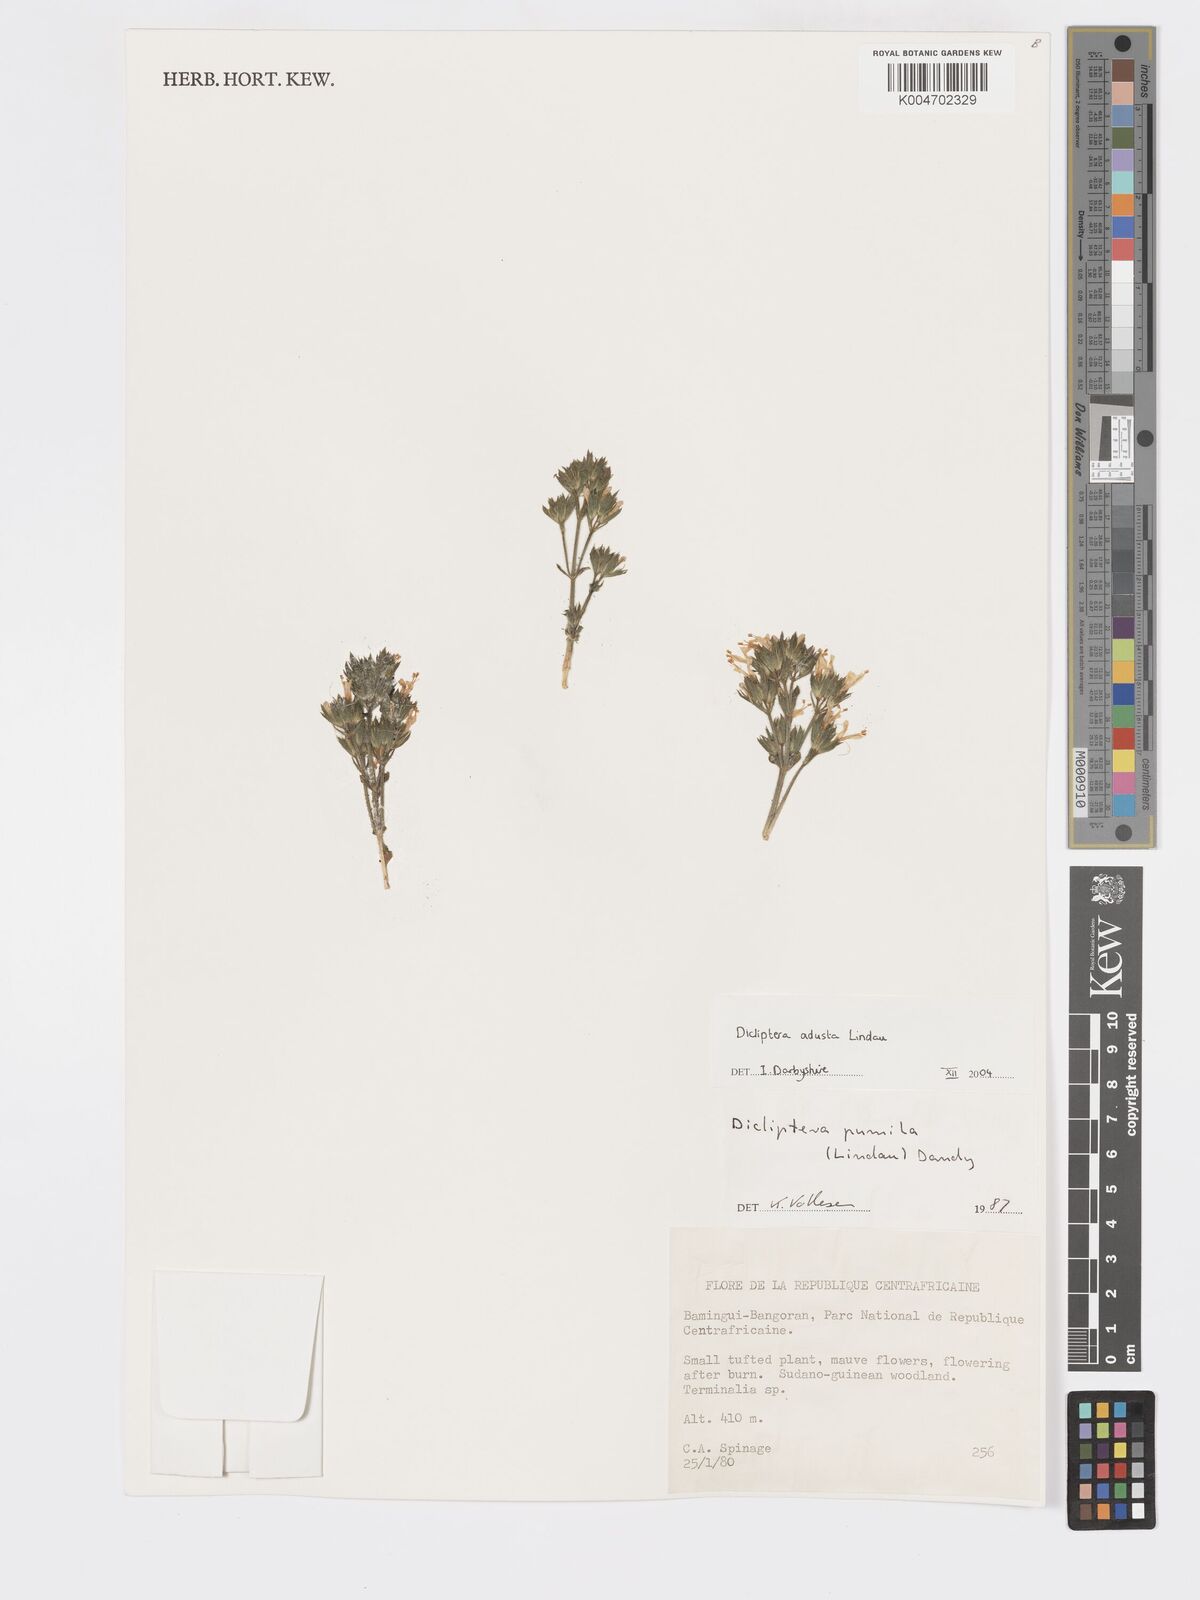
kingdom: Plantae
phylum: Tracheophyta
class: Magnoliopsida
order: Lamiales
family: Acanthaceae
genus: Dicliptera
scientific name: Dicliptera pumila
